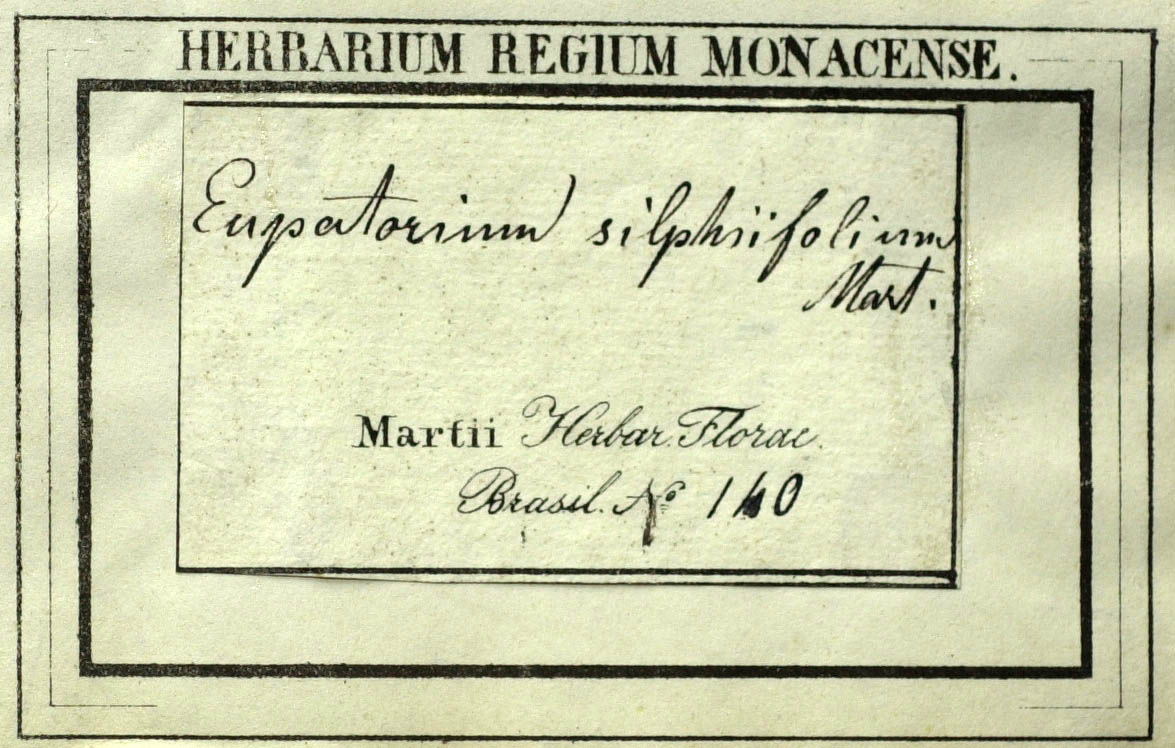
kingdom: Plantae
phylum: Tracheophyta
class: Magnoliopsida
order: Asterales
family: Asteraceae
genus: Austroeupatorium
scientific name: Austroeupatorium silphiifolium
